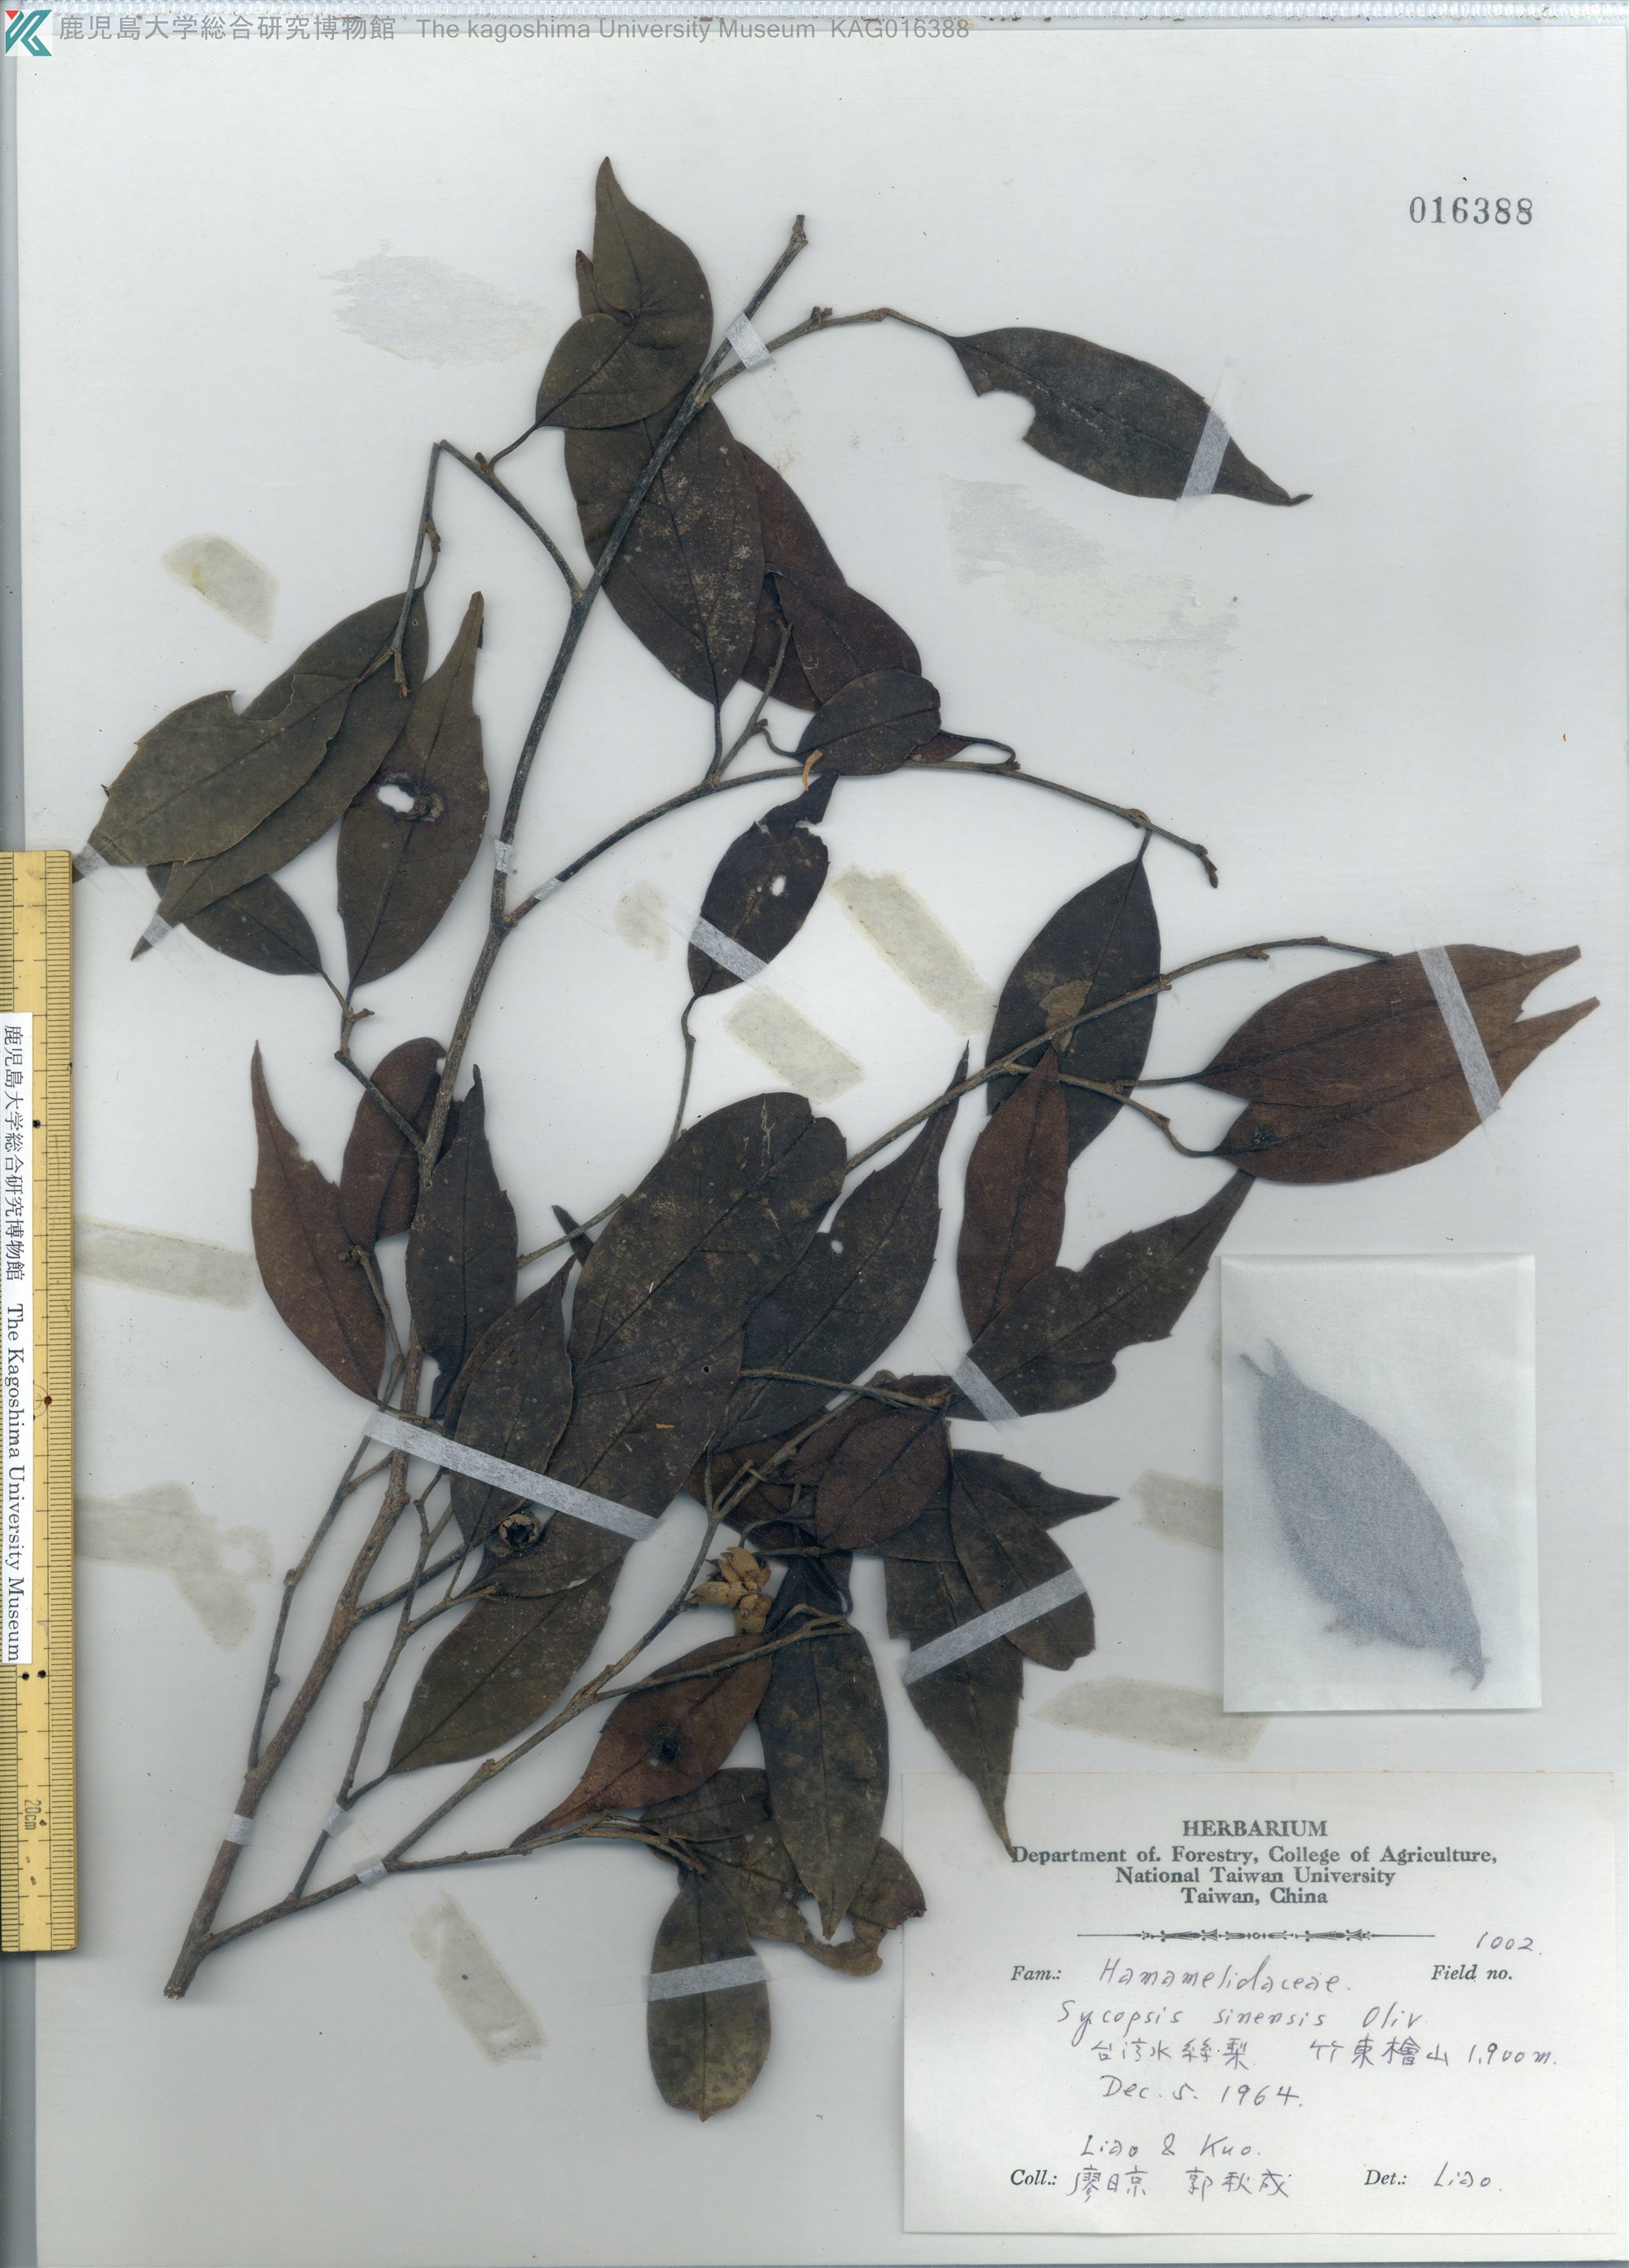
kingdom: Plantae
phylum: Tracheophyta
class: Magnoliopsida
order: Saxifragales
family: Hamamelidaceae
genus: Sycopsis
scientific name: Sycopsis sinensis
